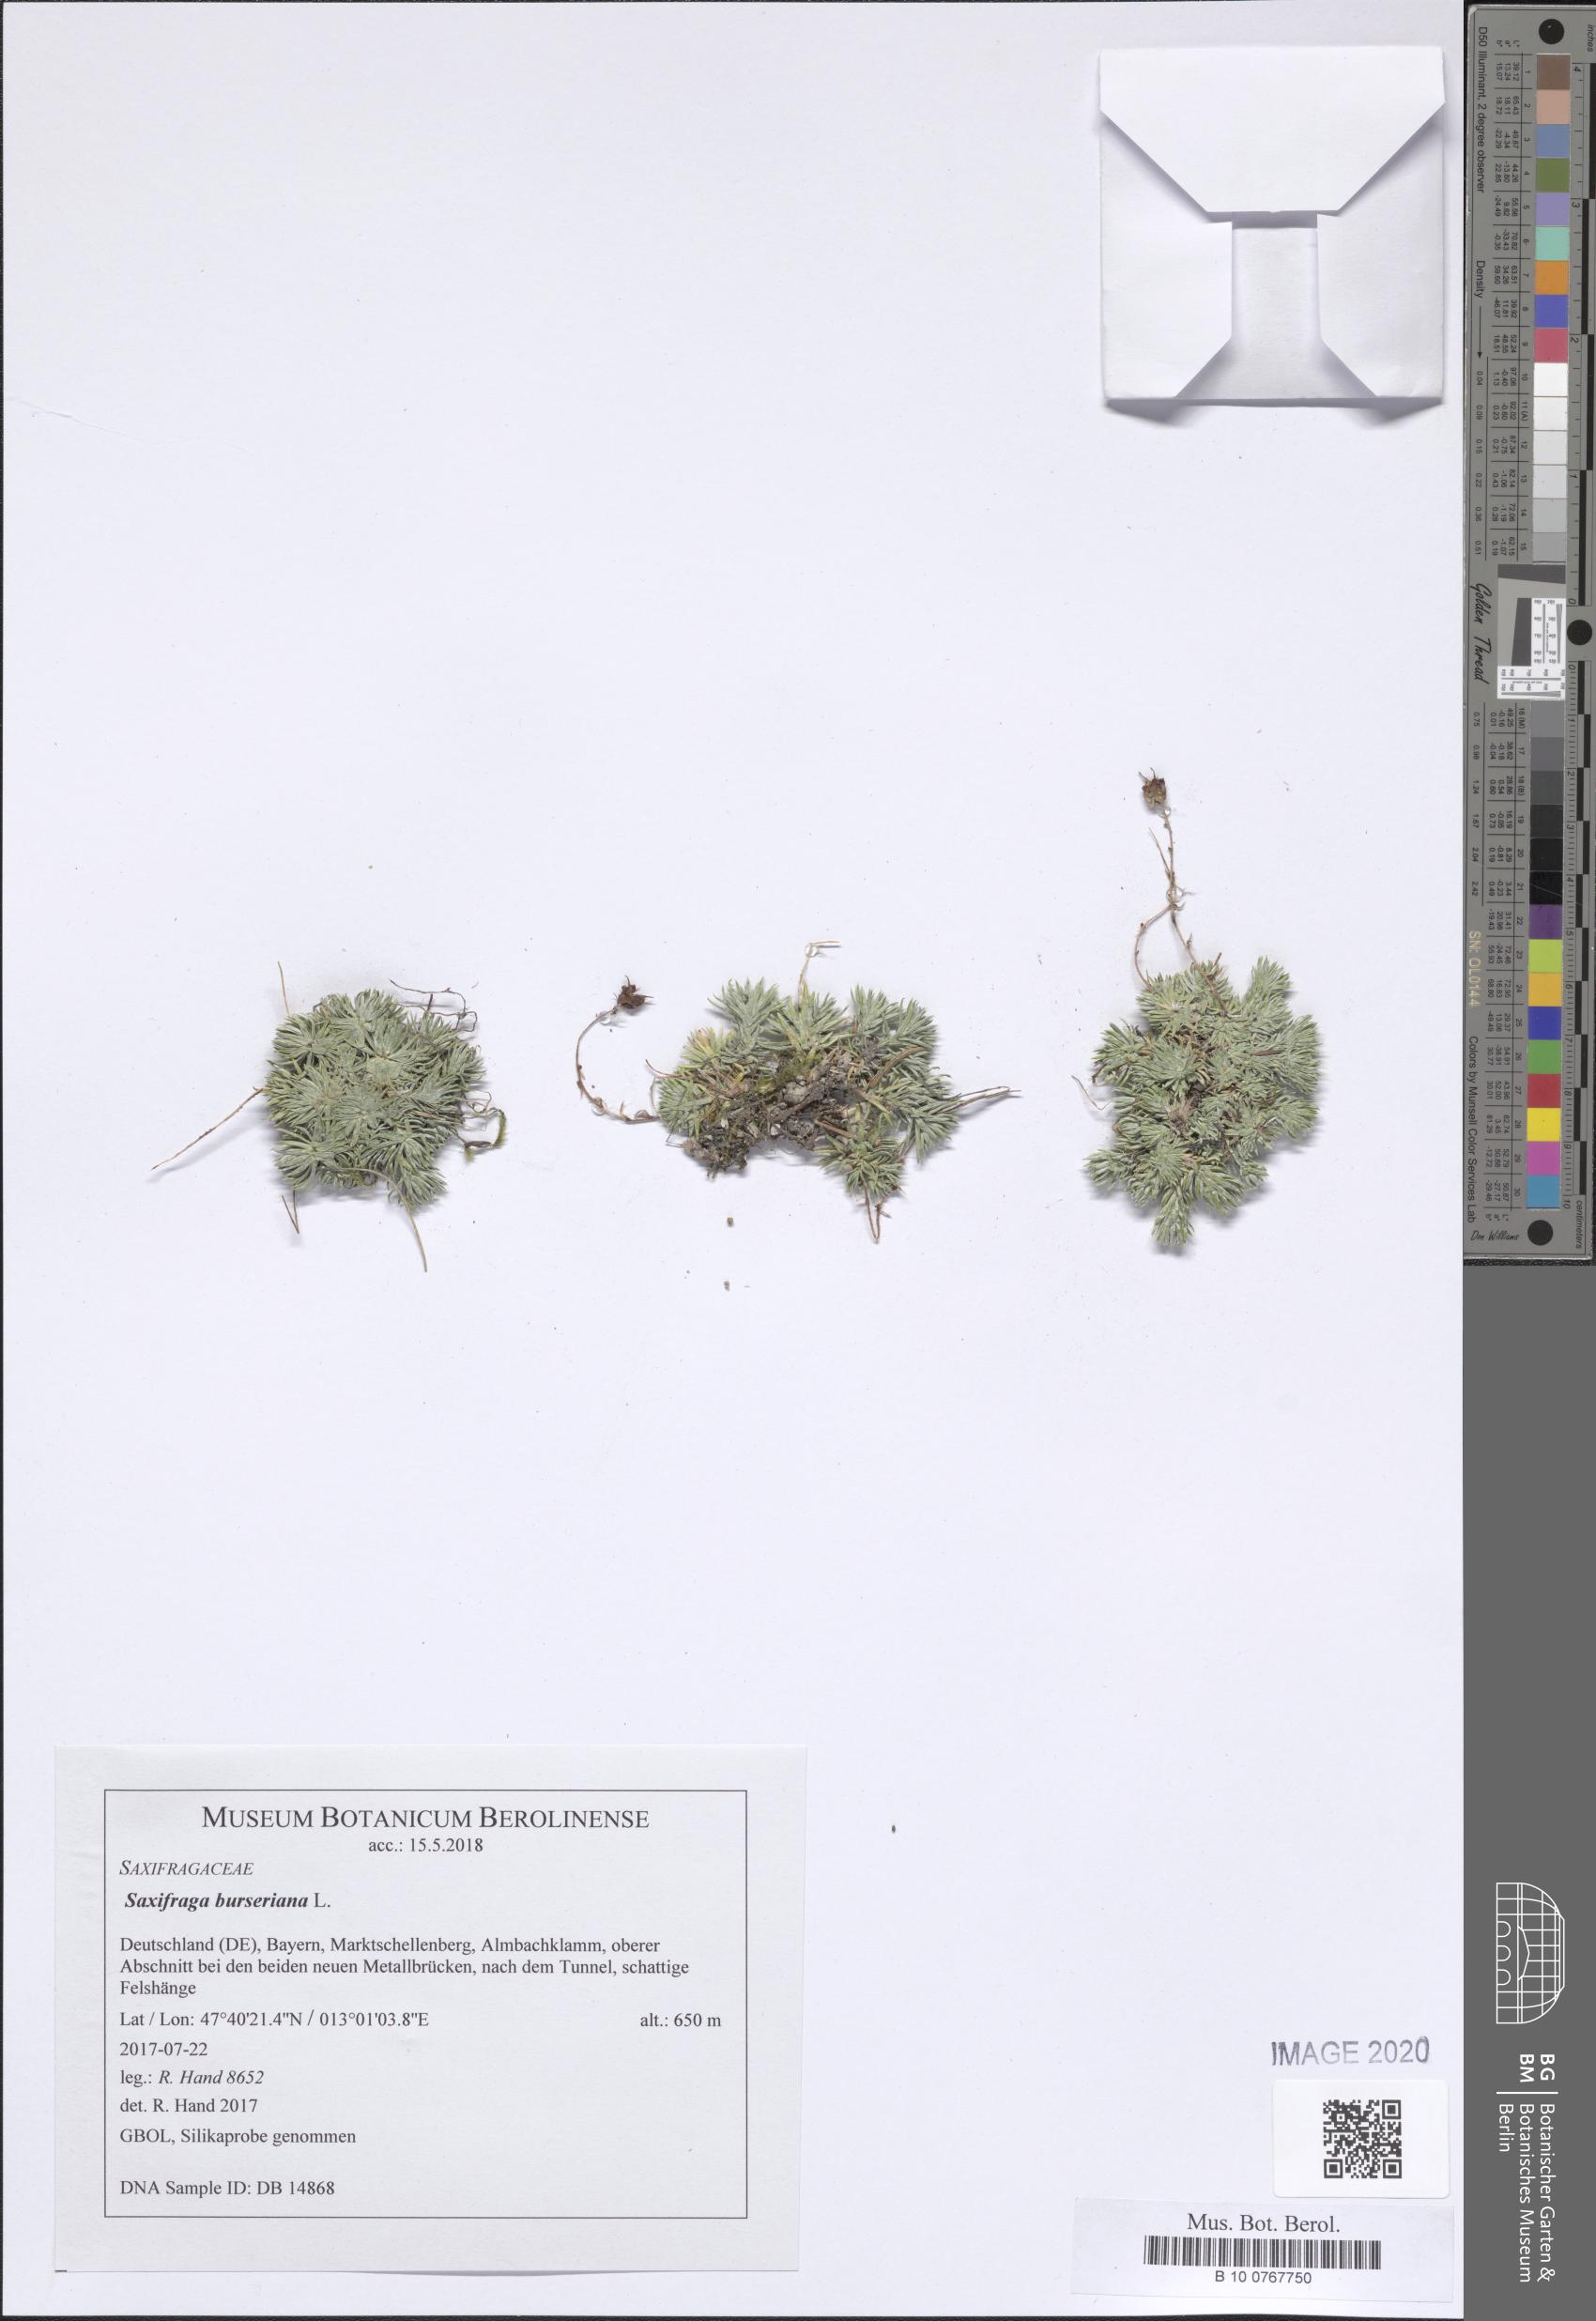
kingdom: Plantae
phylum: Tracheophyta
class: Magnoliopsida
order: Saxifragales
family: Saxifragaceae
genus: Saxifraga
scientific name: Saxifraga burseriana
